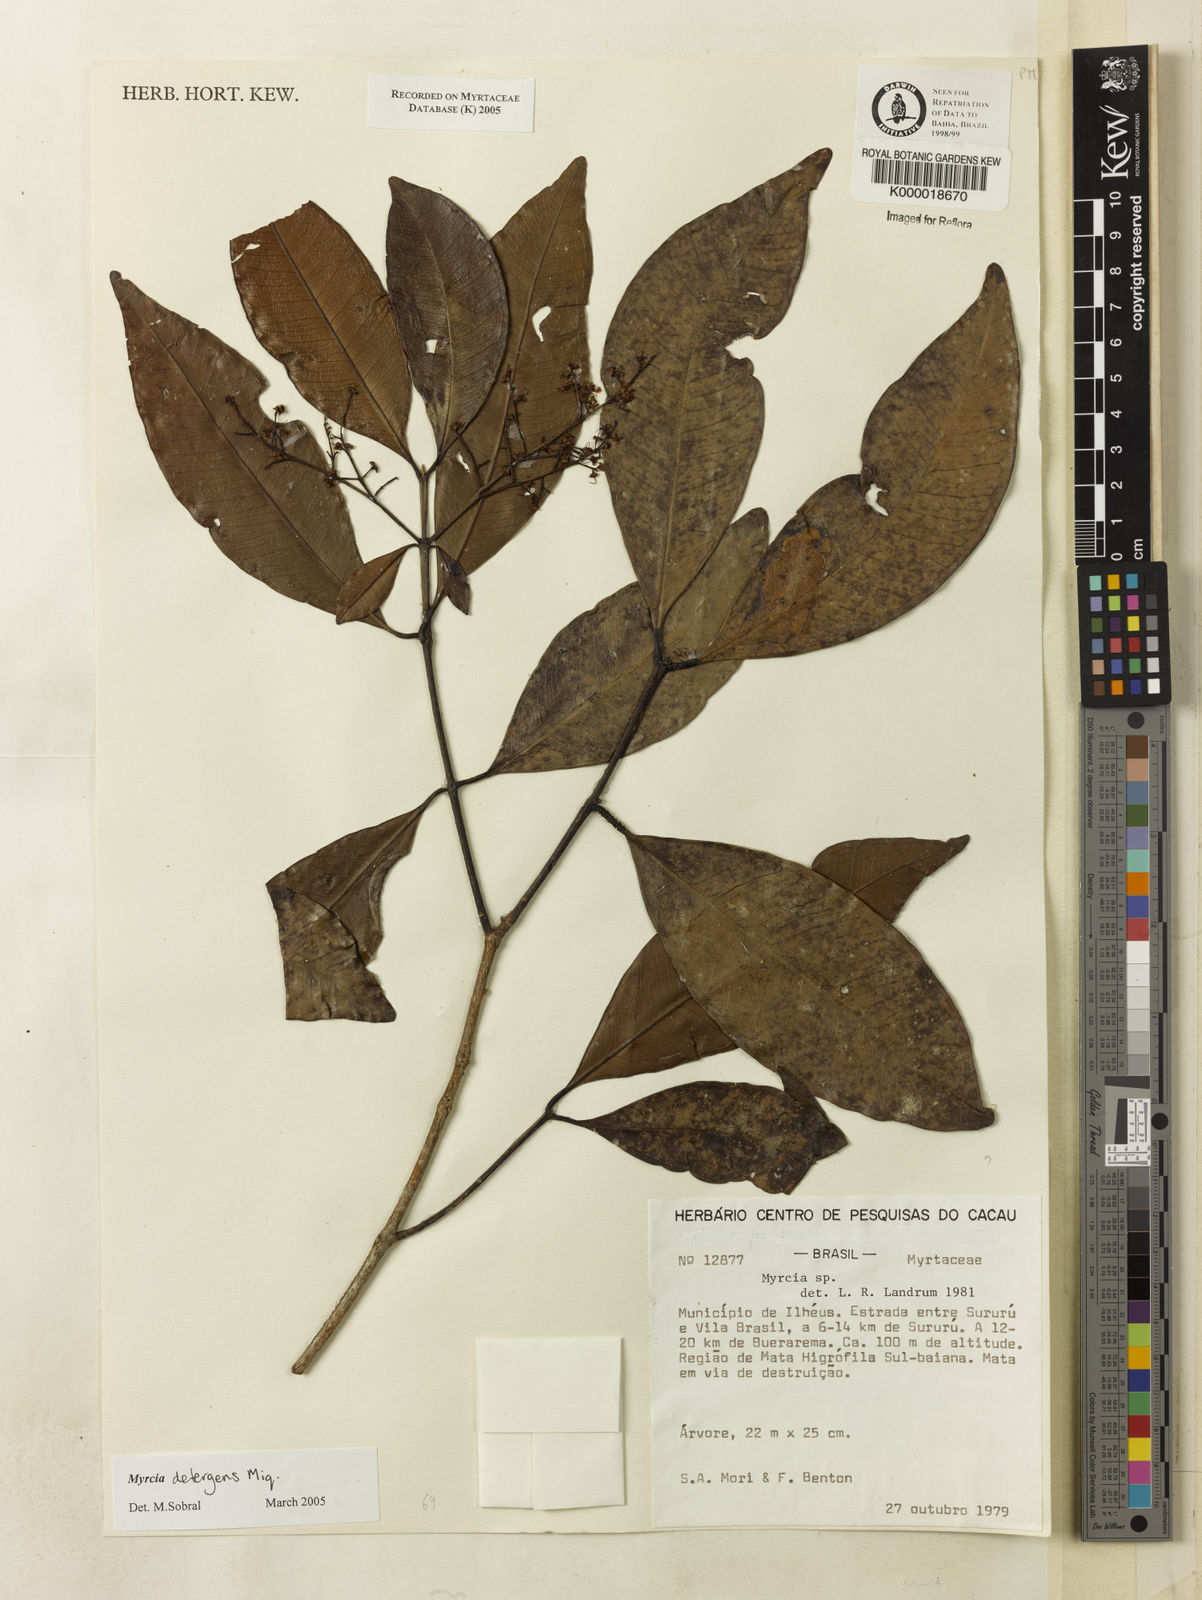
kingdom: Plantae
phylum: Tracheophyta
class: Magnoliopsida
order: Myrtales
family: Myrtaceae
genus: Myrcia
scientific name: Myrcia
